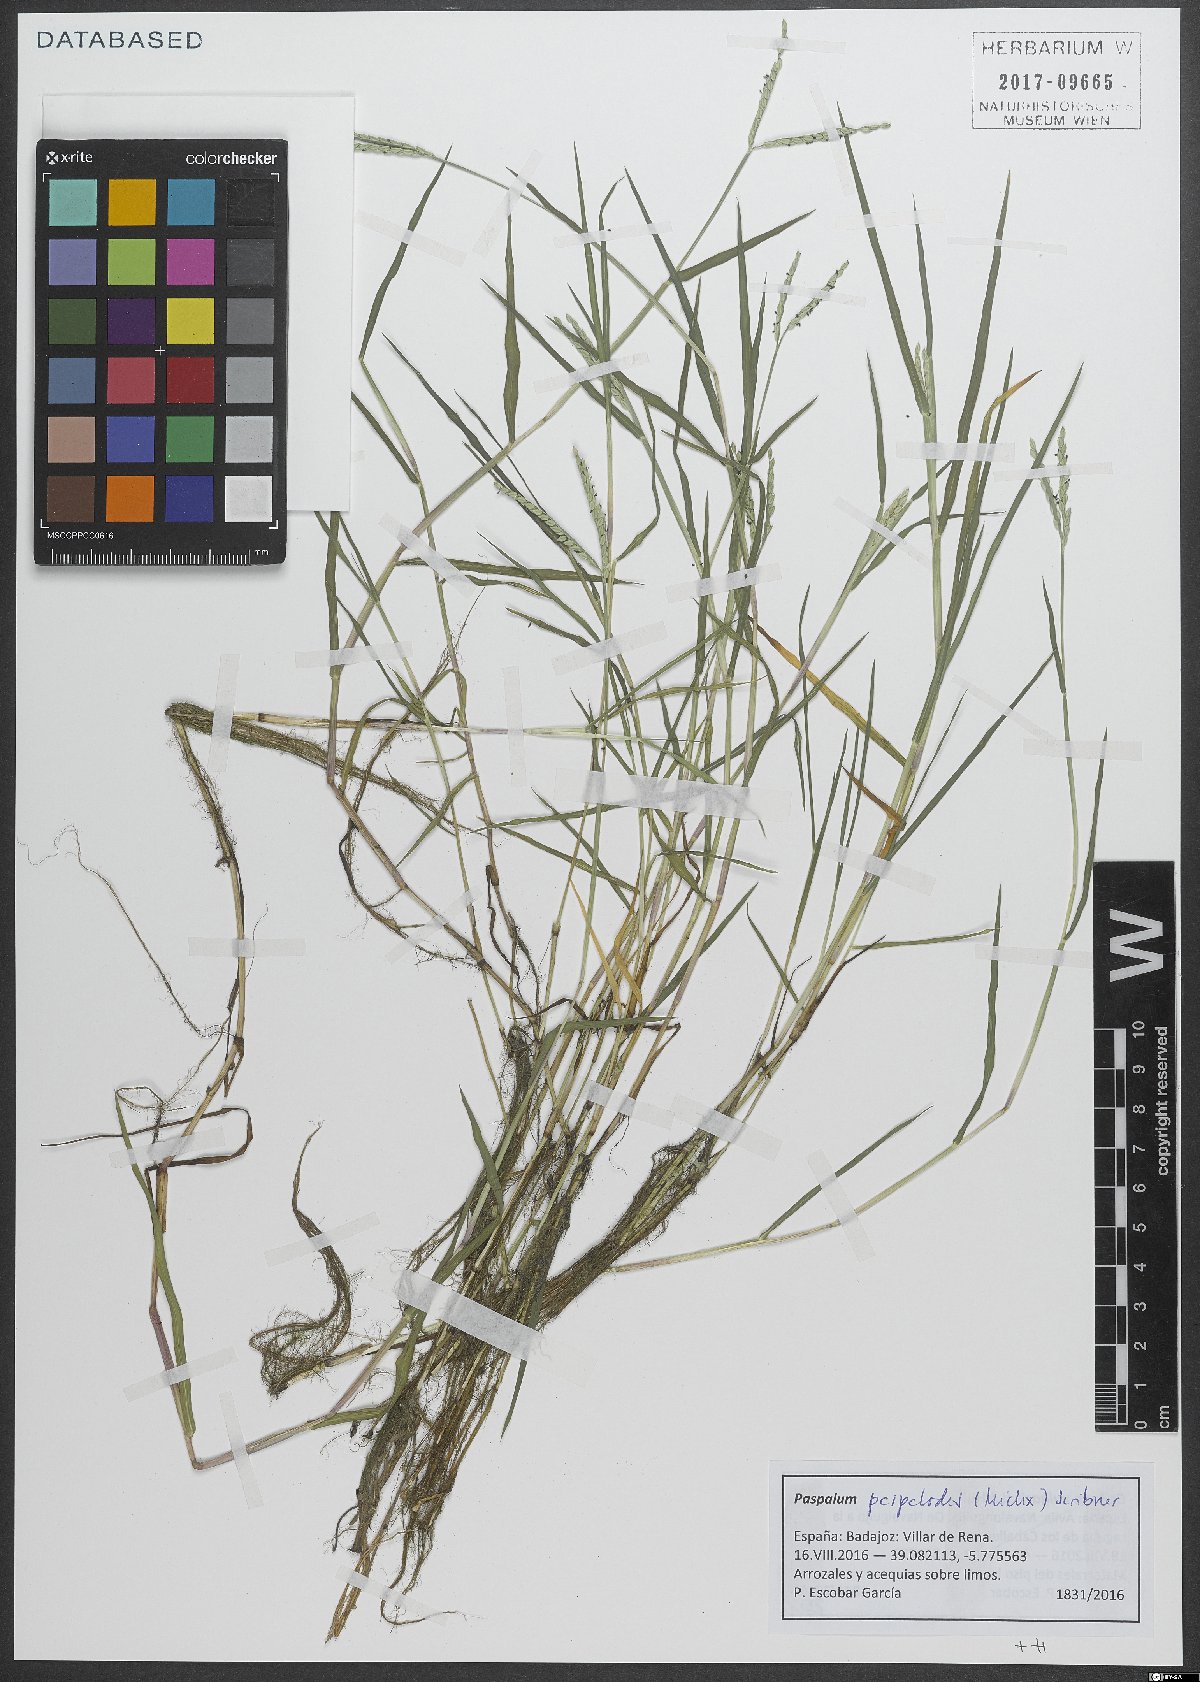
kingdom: Plantae
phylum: Tracheophyta
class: Liliopsida
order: Poales
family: Poaceae
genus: Paspalum
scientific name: Paspalum distichum
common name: Knotgrass
